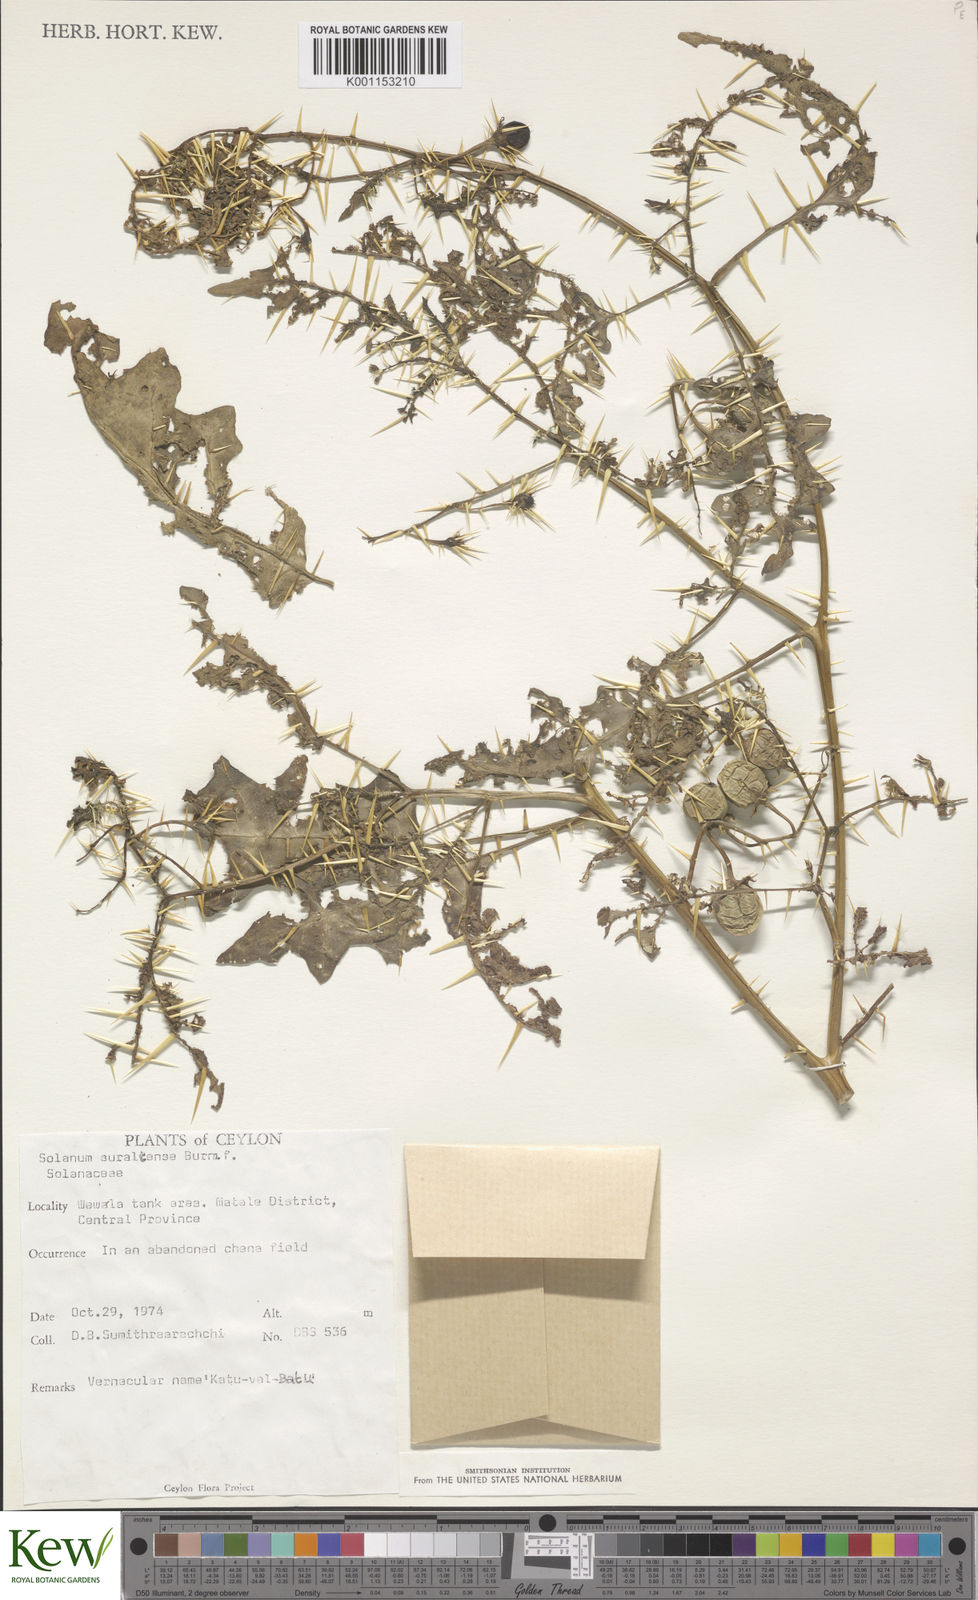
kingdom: Plantae
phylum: Tracheophyta
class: Magnoliopsida
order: Solanales
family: Solanaceae
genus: Solanum
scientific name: Solanum virginianum
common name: Surattense nightshade
